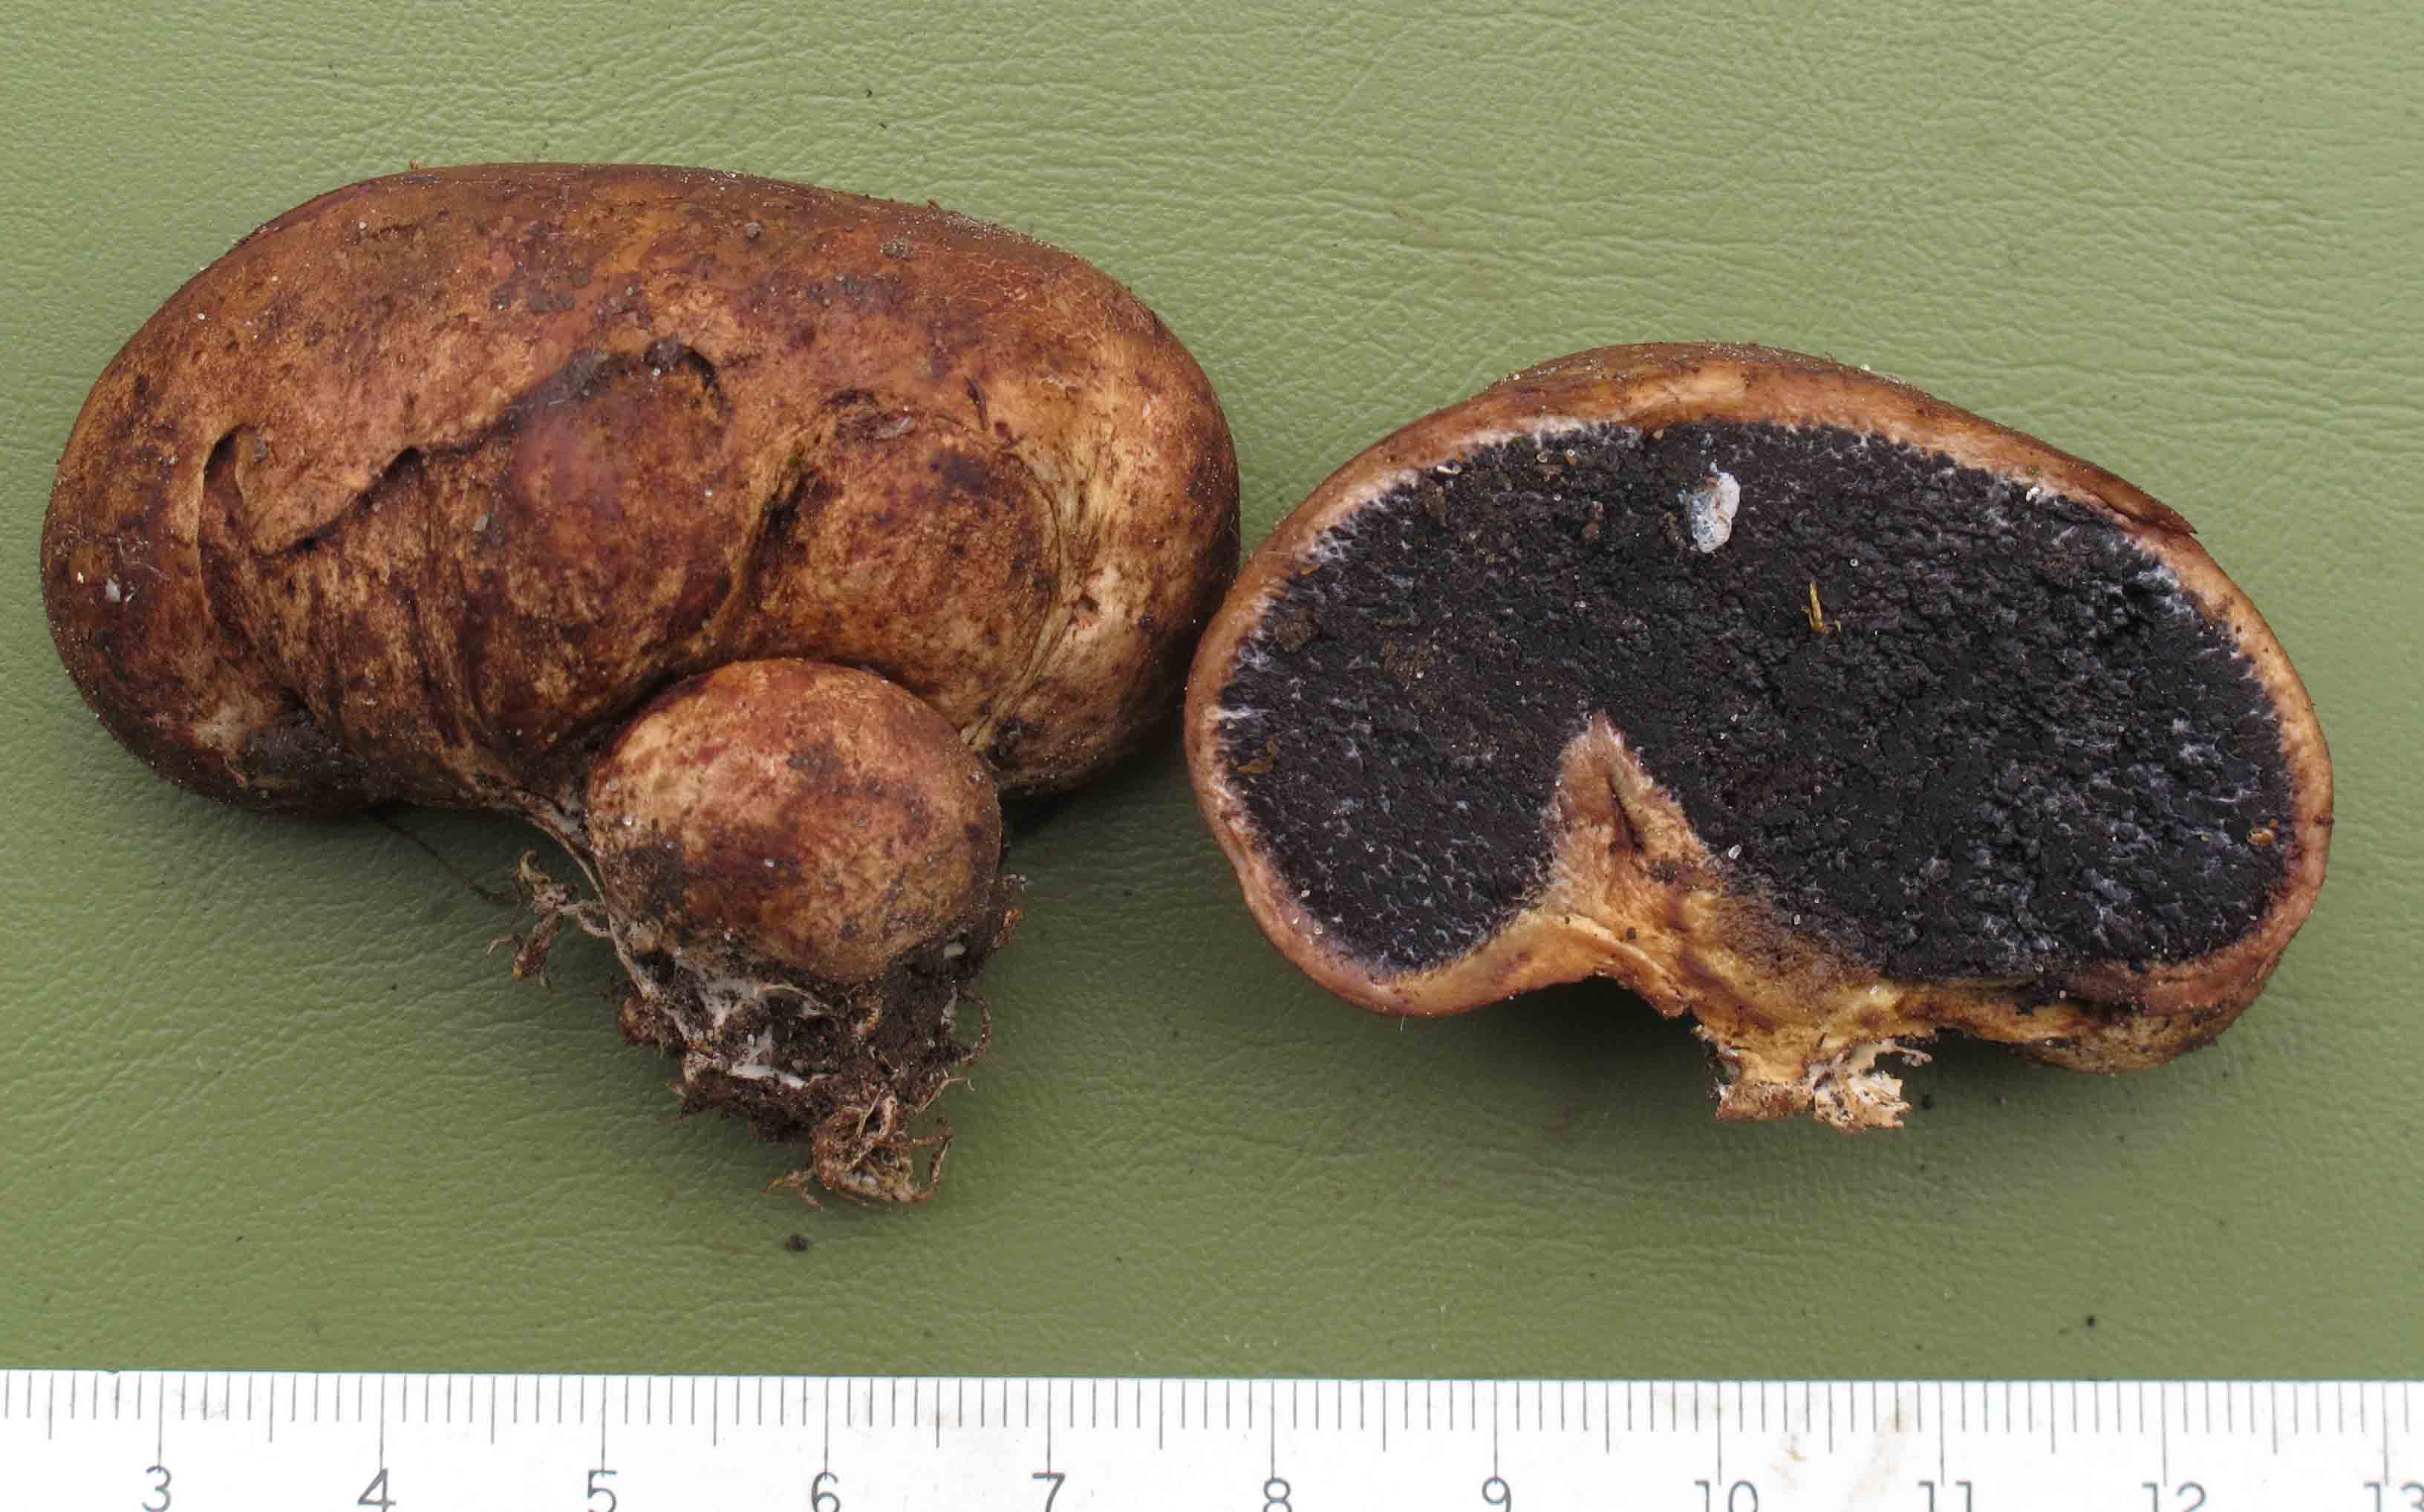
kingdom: Fungi
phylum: Basidiomycota
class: Agaricomycetes
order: Boletales
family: Sclerodermataceae
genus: Scleroderma
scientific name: Scleroderma cepa
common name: rødbrun bruskbold
